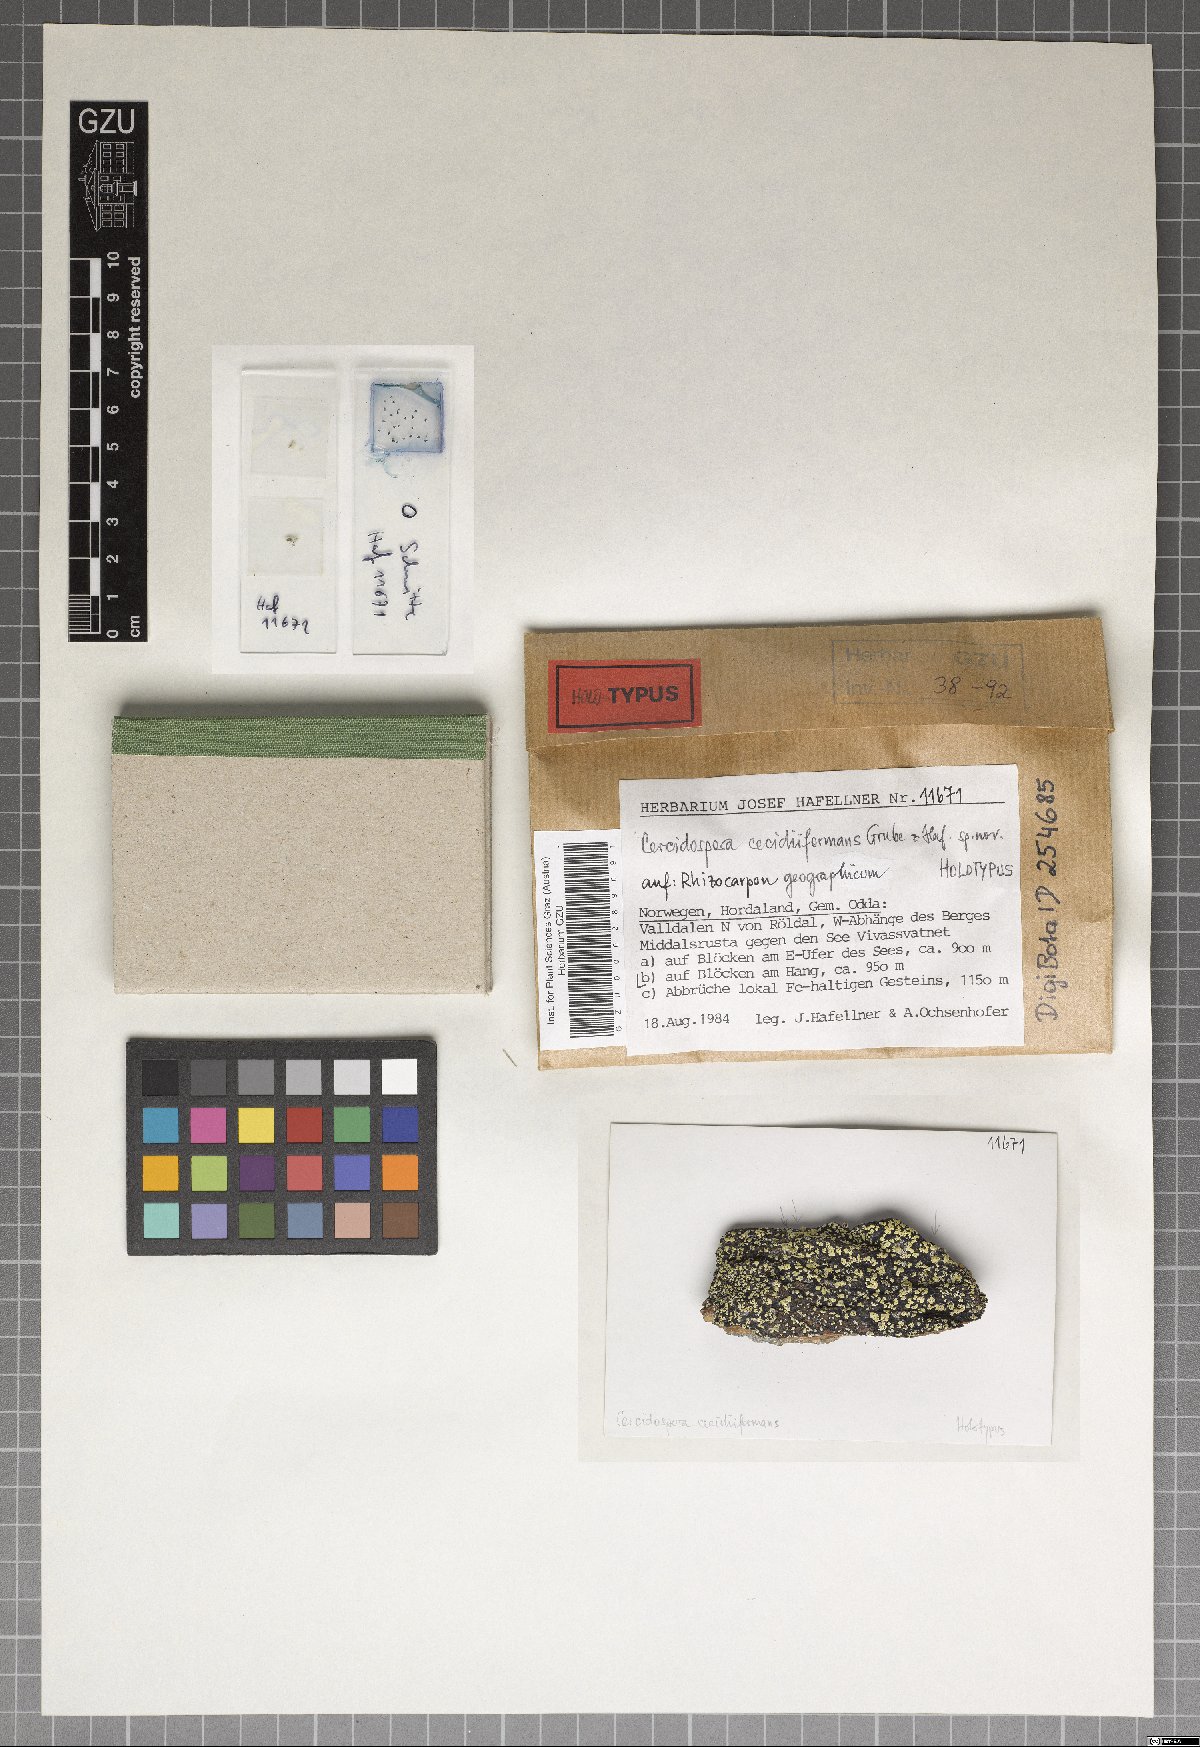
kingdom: Fungi
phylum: Ascomycota
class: Dothideomycetes
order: Dothideales
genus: Cercidospora
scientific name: Cercidospora cecidiiformans
